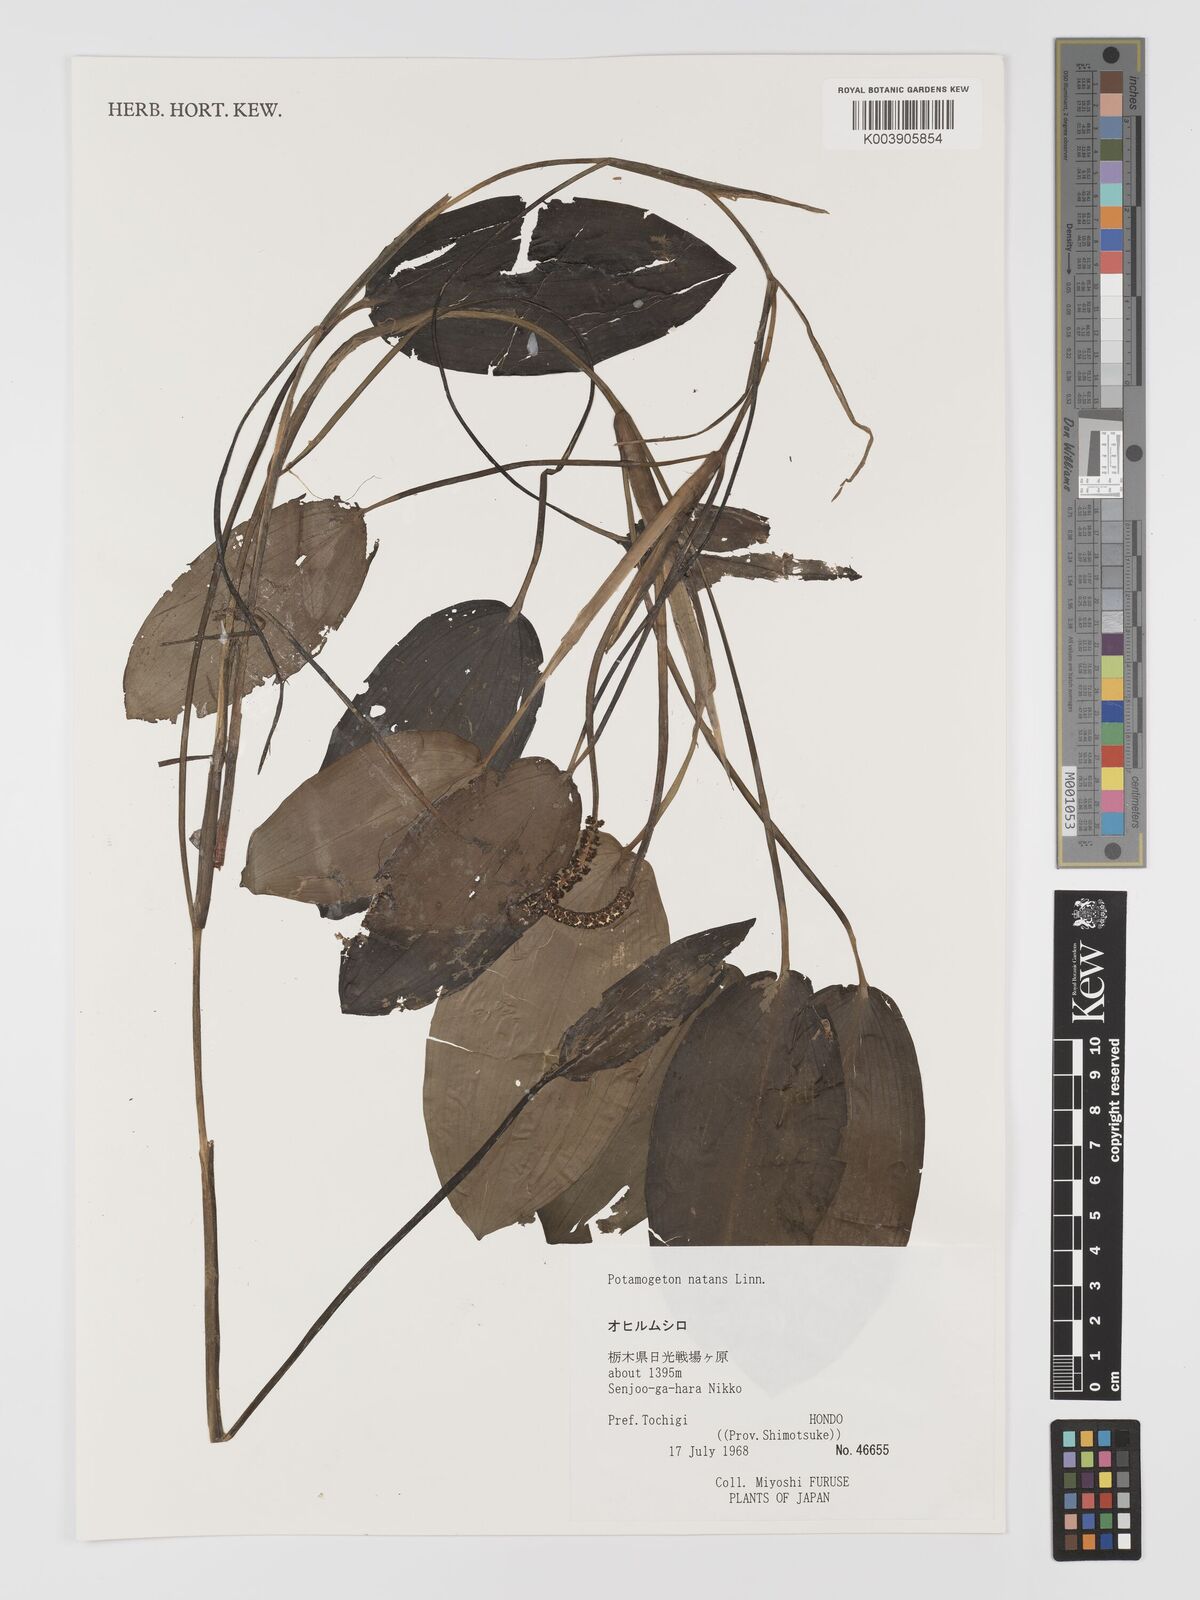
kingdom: Plantae
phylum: Tracheophyta
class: Liliopsida
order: Alismatales
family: Potamogetonaceae
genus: Potamogeton
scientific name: Potamogeton natans
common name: Broad-leaved pondweed
